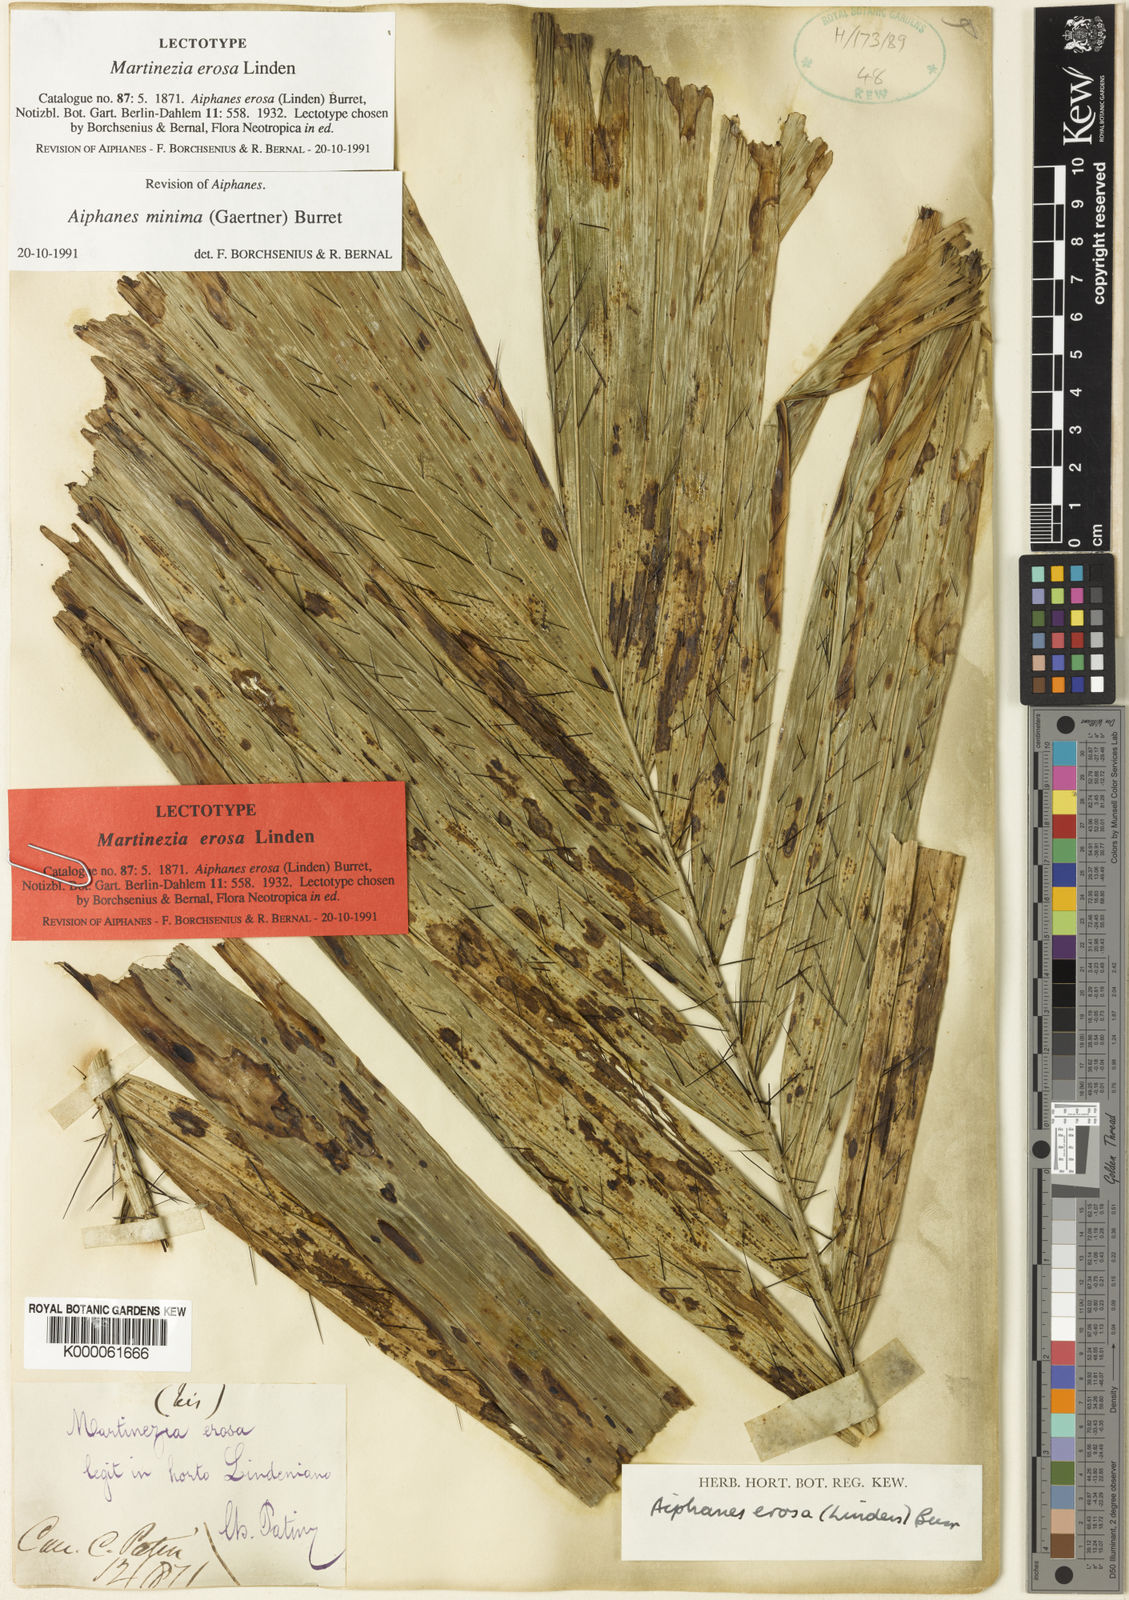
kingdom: Plantae
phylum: Tracheophyta
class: Liliopsida
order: Arecales
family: Arecaceae
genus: Aiphanes
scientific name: Aiphanes minima
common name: Grigri
